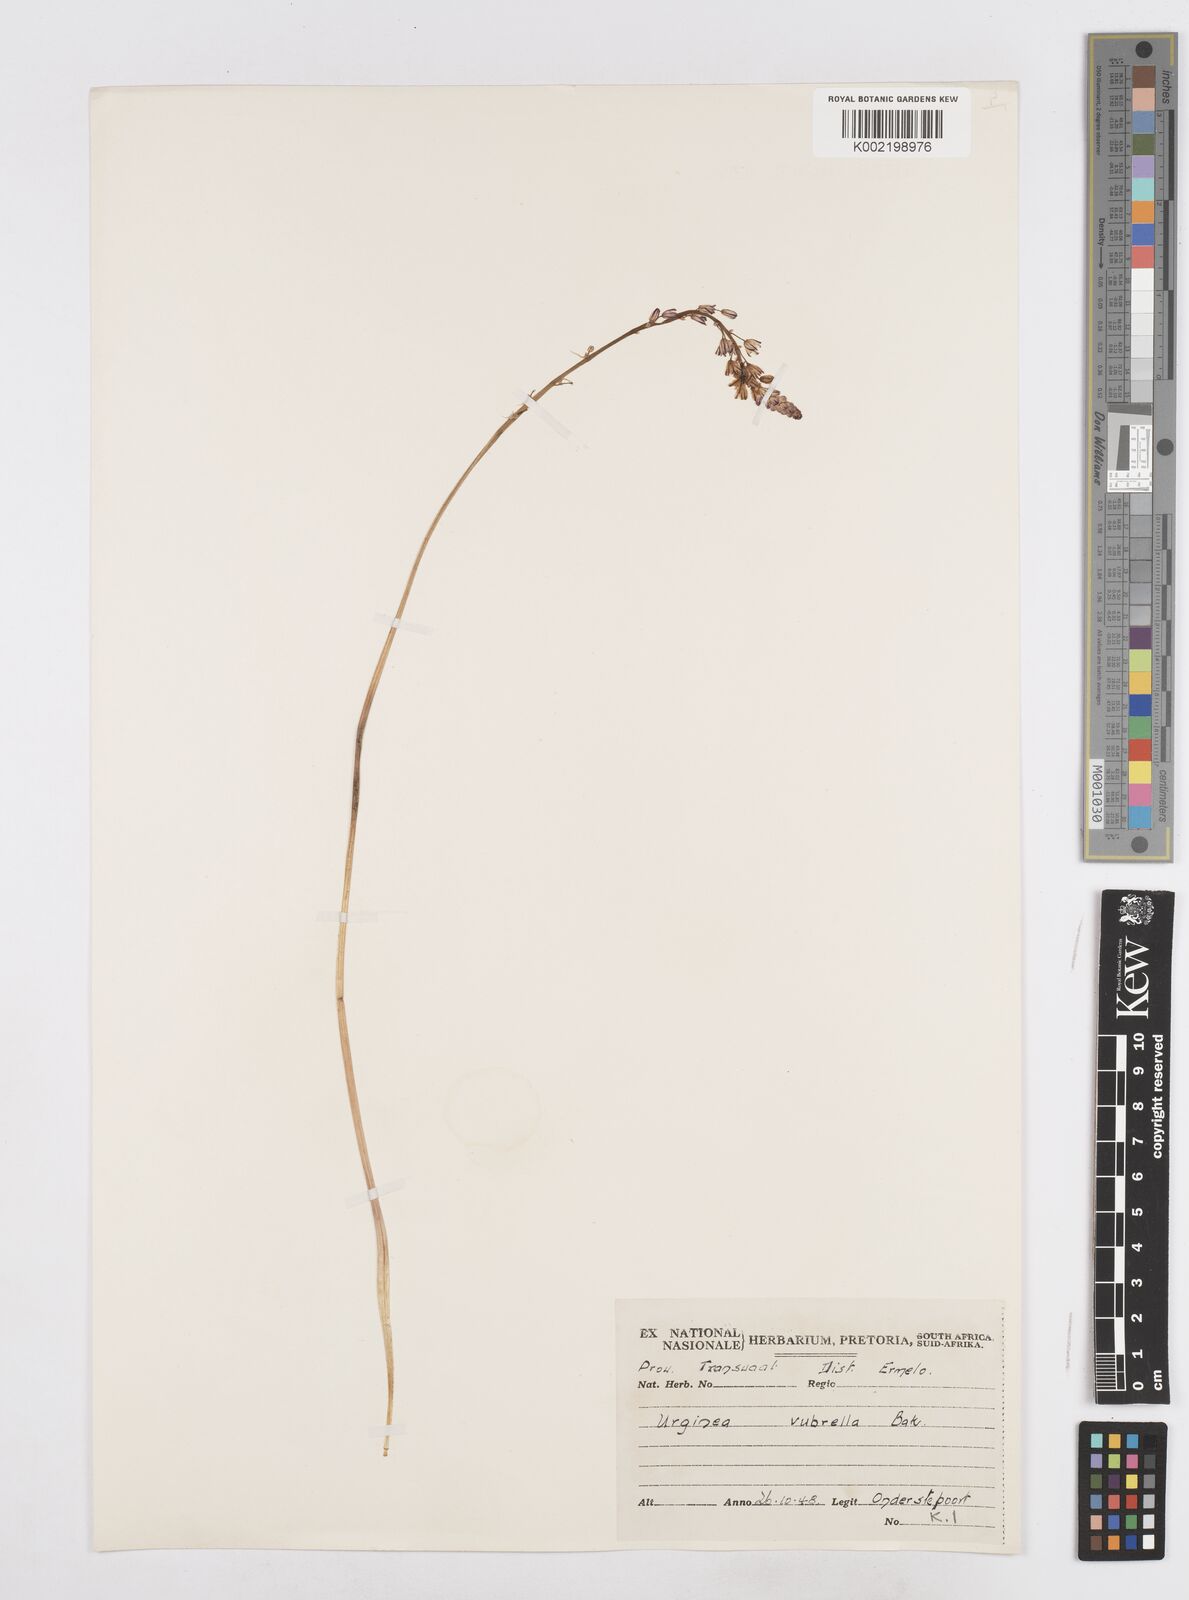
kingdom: Plantae
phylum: Tracheophyta
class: Liliopsida
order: Asparagales
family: Asparagaceae
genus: Drimia
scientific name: Drimia
